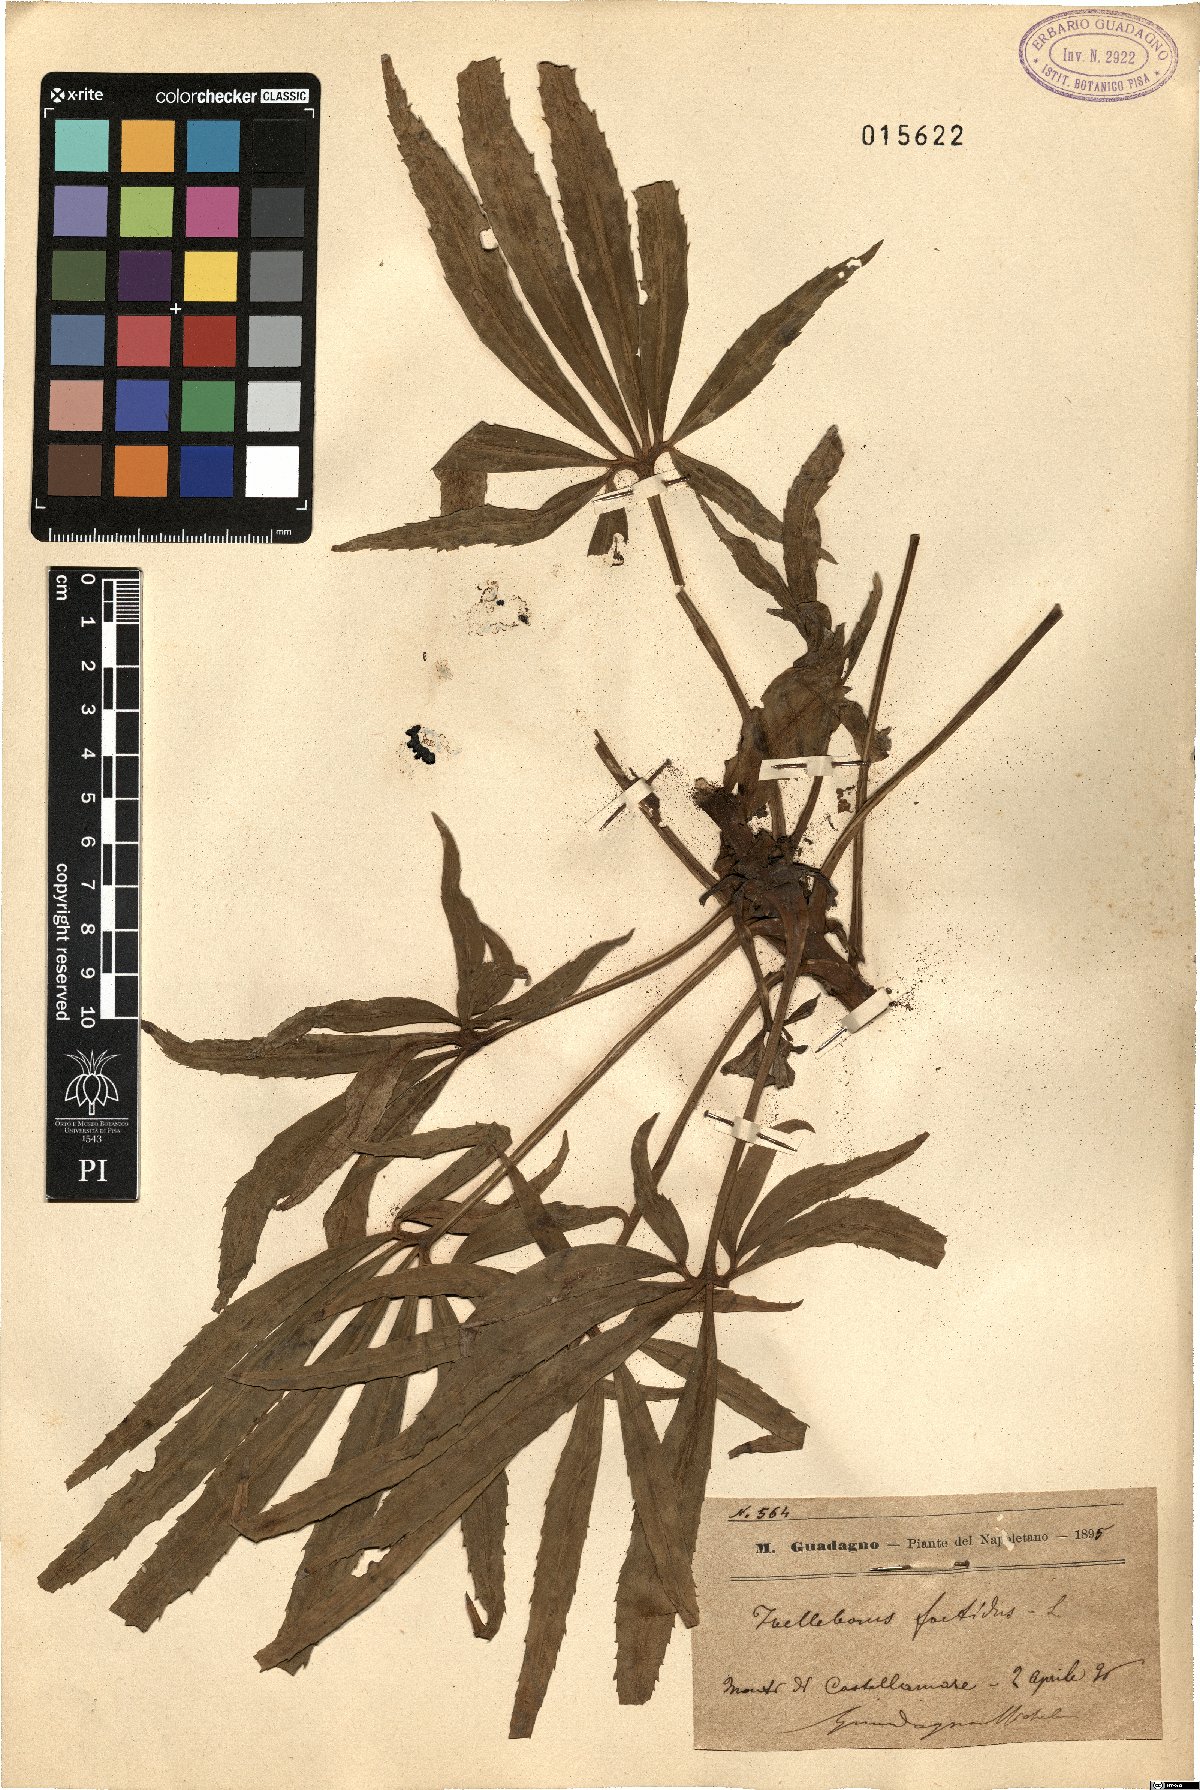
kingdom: Plantae
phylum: Tracheophyta
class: Magnoliopsida
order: Ranunculales
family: Ranunculaceae
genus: Helleborus
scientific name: Helleborus foetidus
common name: Stinking hellebore
